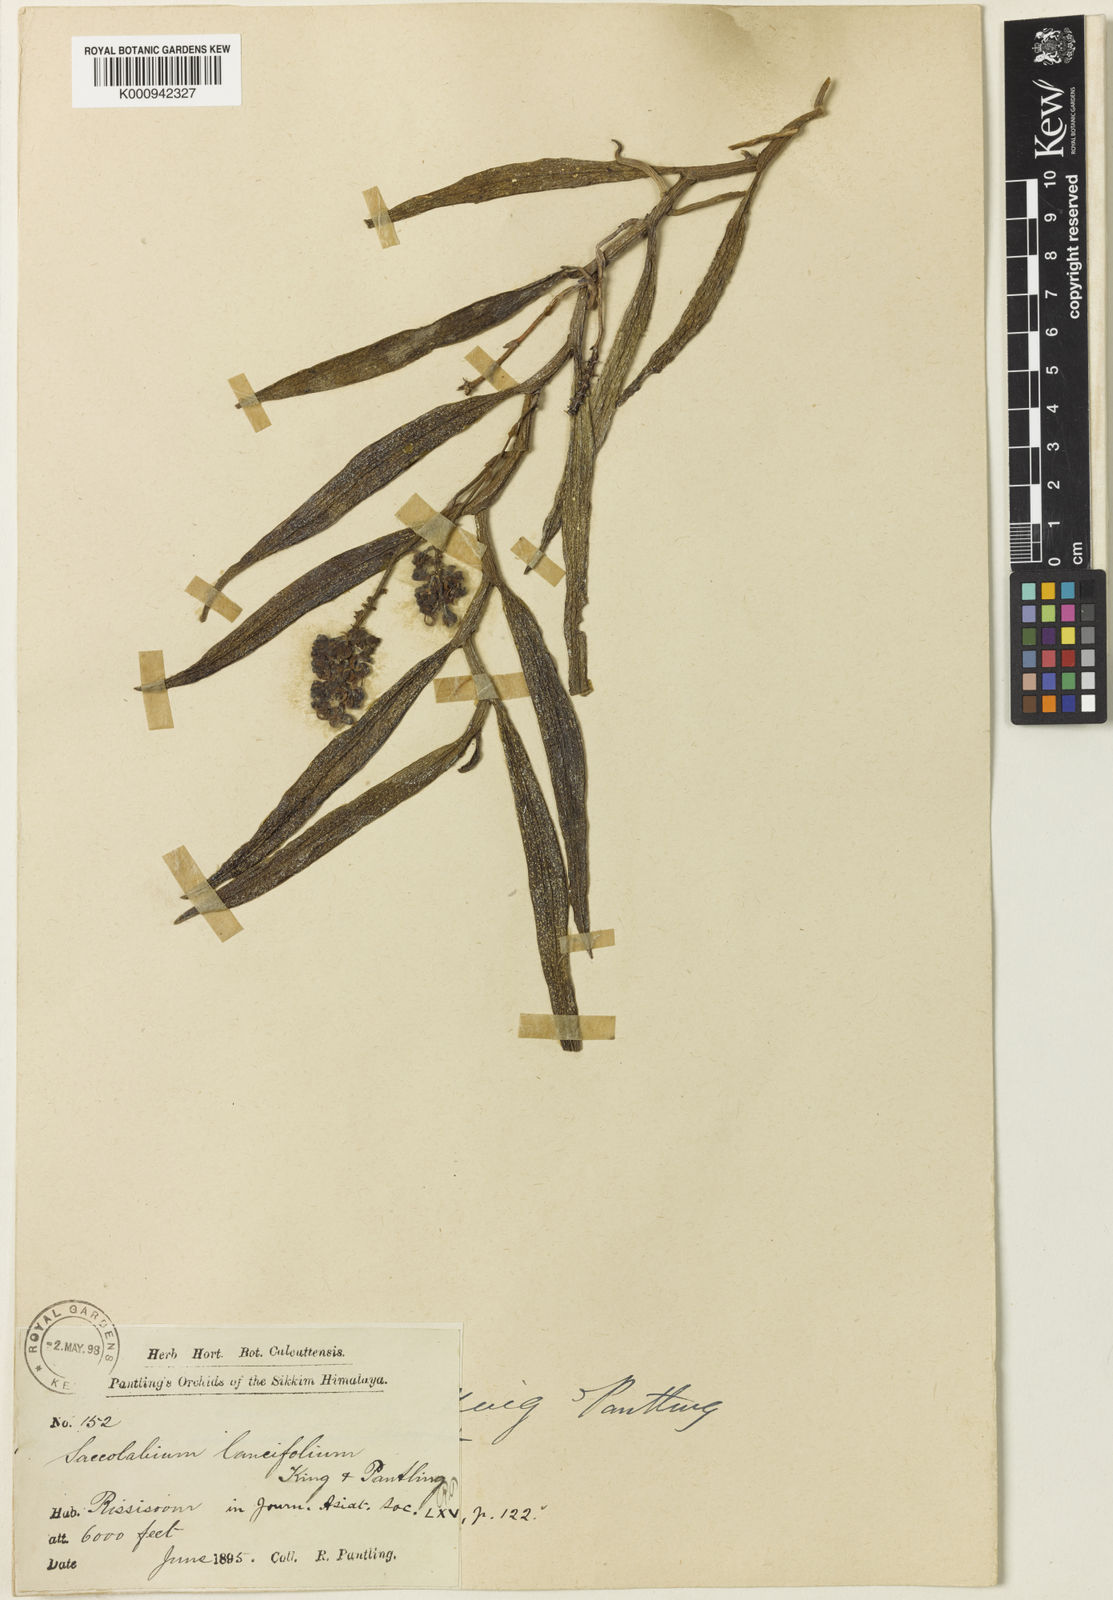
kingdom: Plantae
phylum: Tracheophyta
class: Liliopsida
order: Asparagales
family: Orchidaceae
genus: Uncifera
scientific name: Uncifera lancifolia
